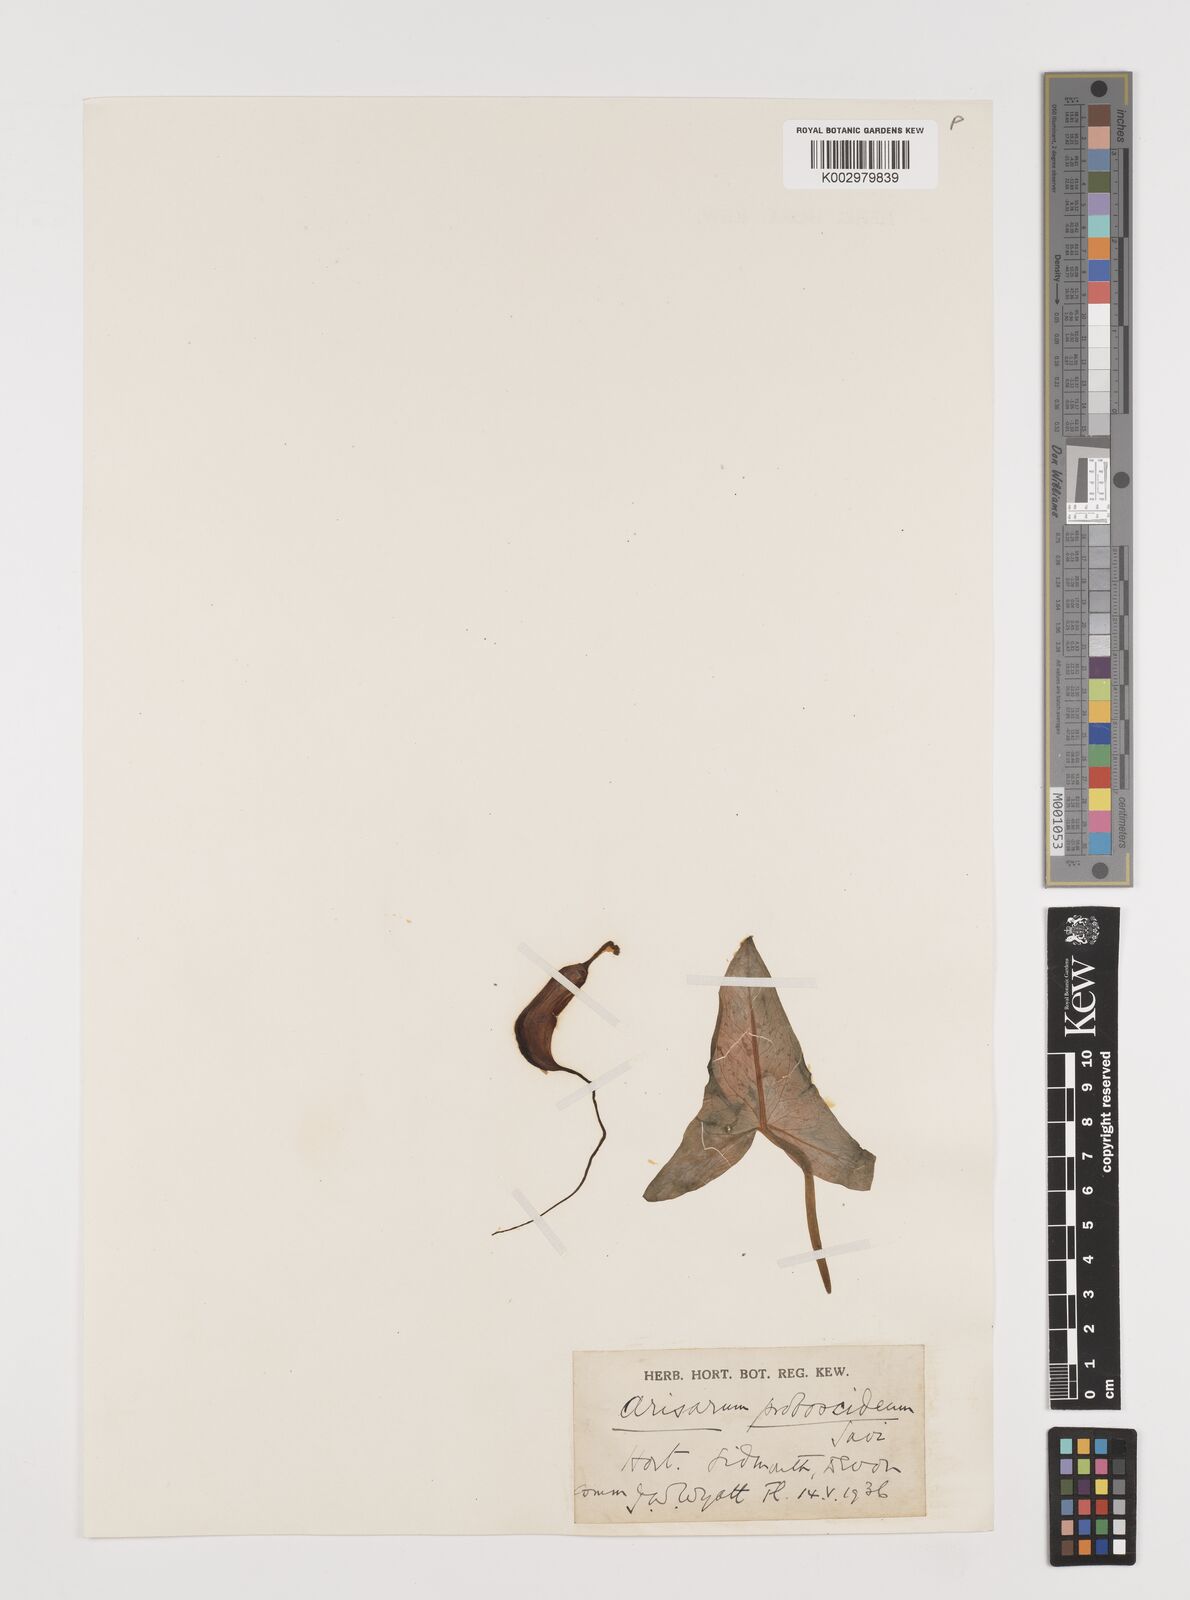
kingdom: Plantae
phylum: Tracheophyta
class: Liliopsida
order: Alismatales
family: Araceae
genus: Arisarum
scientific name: Arisarum proboscideum
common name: Mousetailplant
